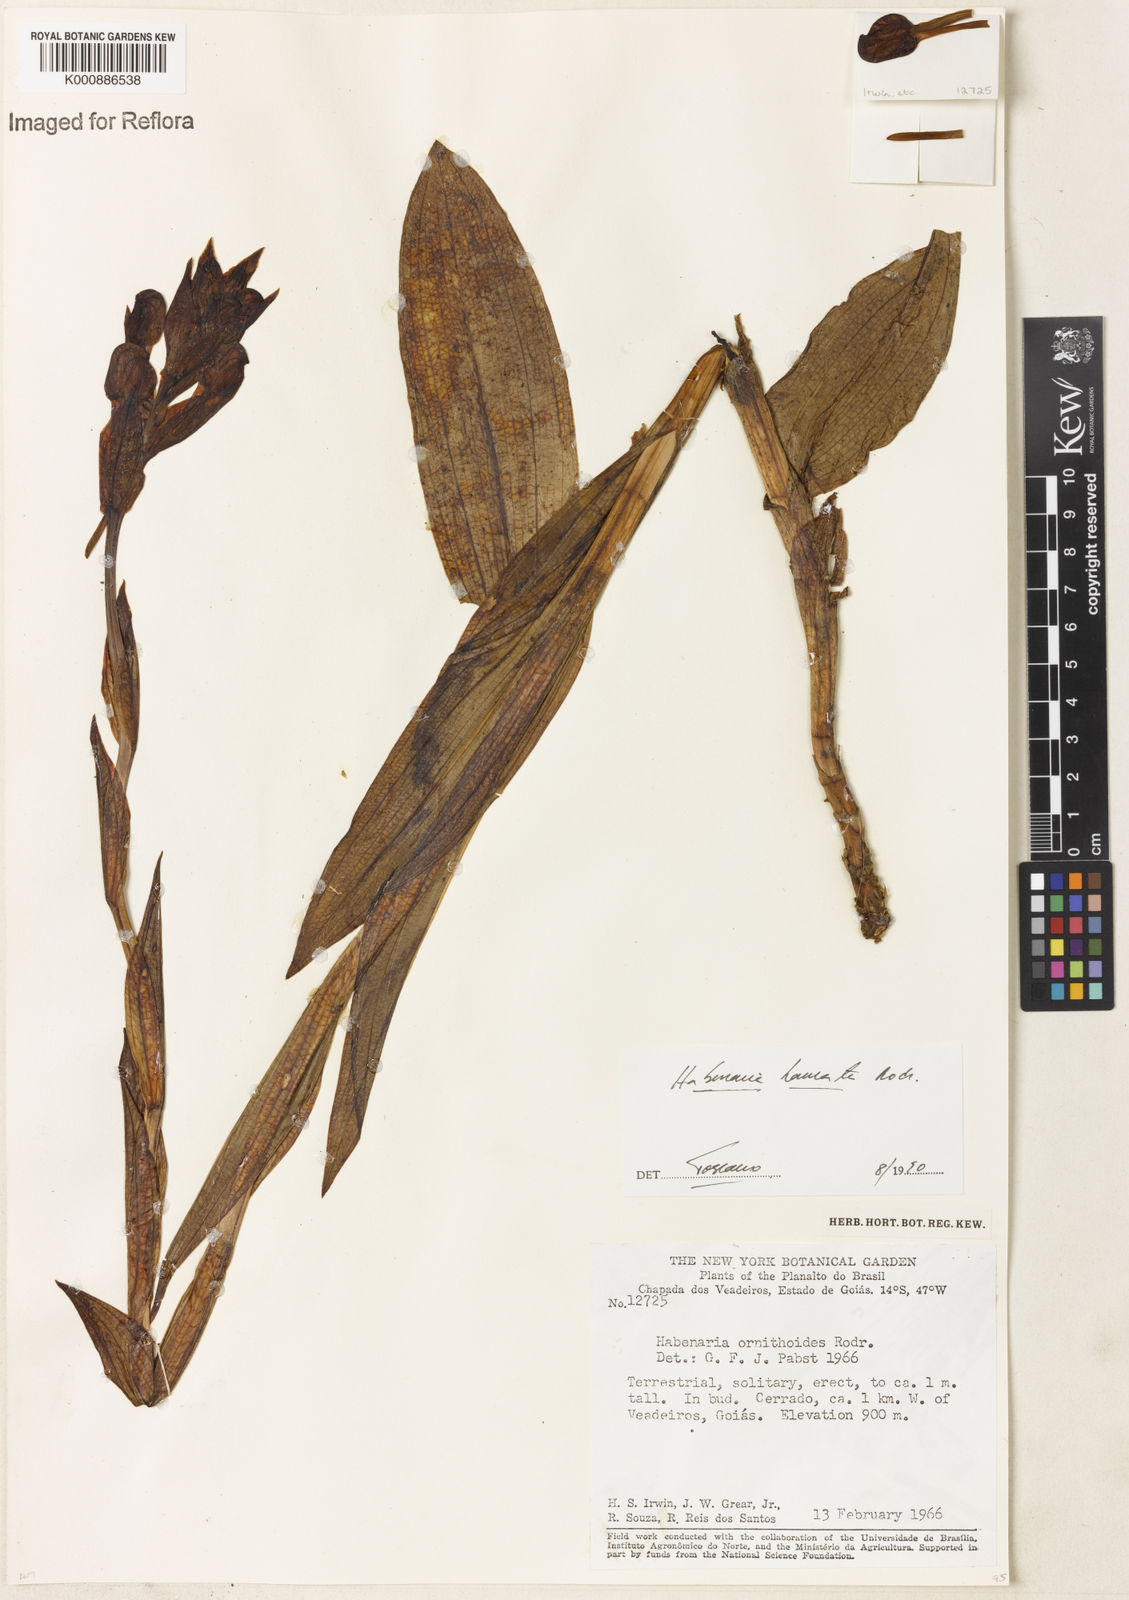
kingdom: Plantae
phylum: Tracheophyta
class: Liliopsida
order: Asparagales
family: Orchidaceae
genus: Habenaria
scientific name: Habenaria hamata
